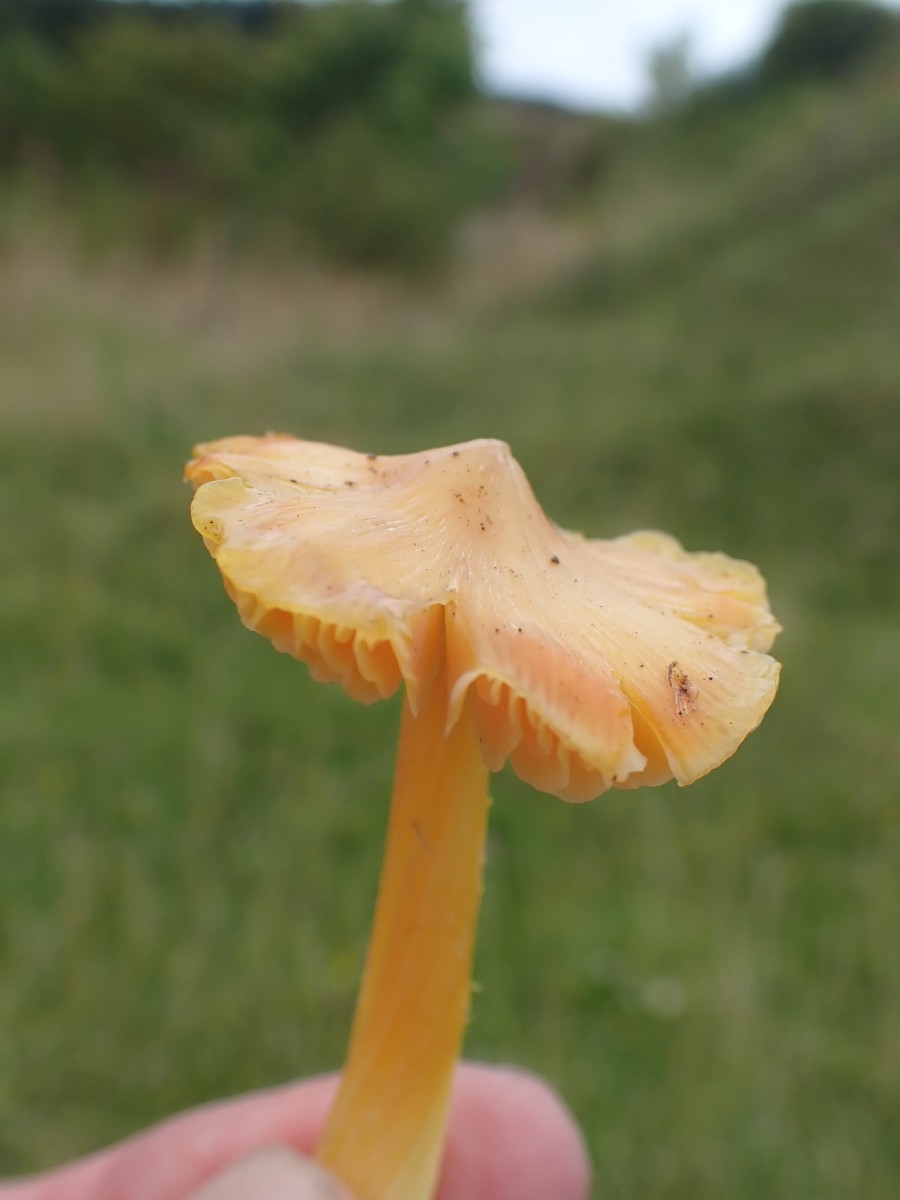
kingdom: Fungi
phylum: Basidiomycota
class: Agaricomycetes
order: Agaricales
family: Hygrophoraceae
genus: Hygrocybe
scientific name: Hygrocybe acutoconica
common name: Konrads vokshat
